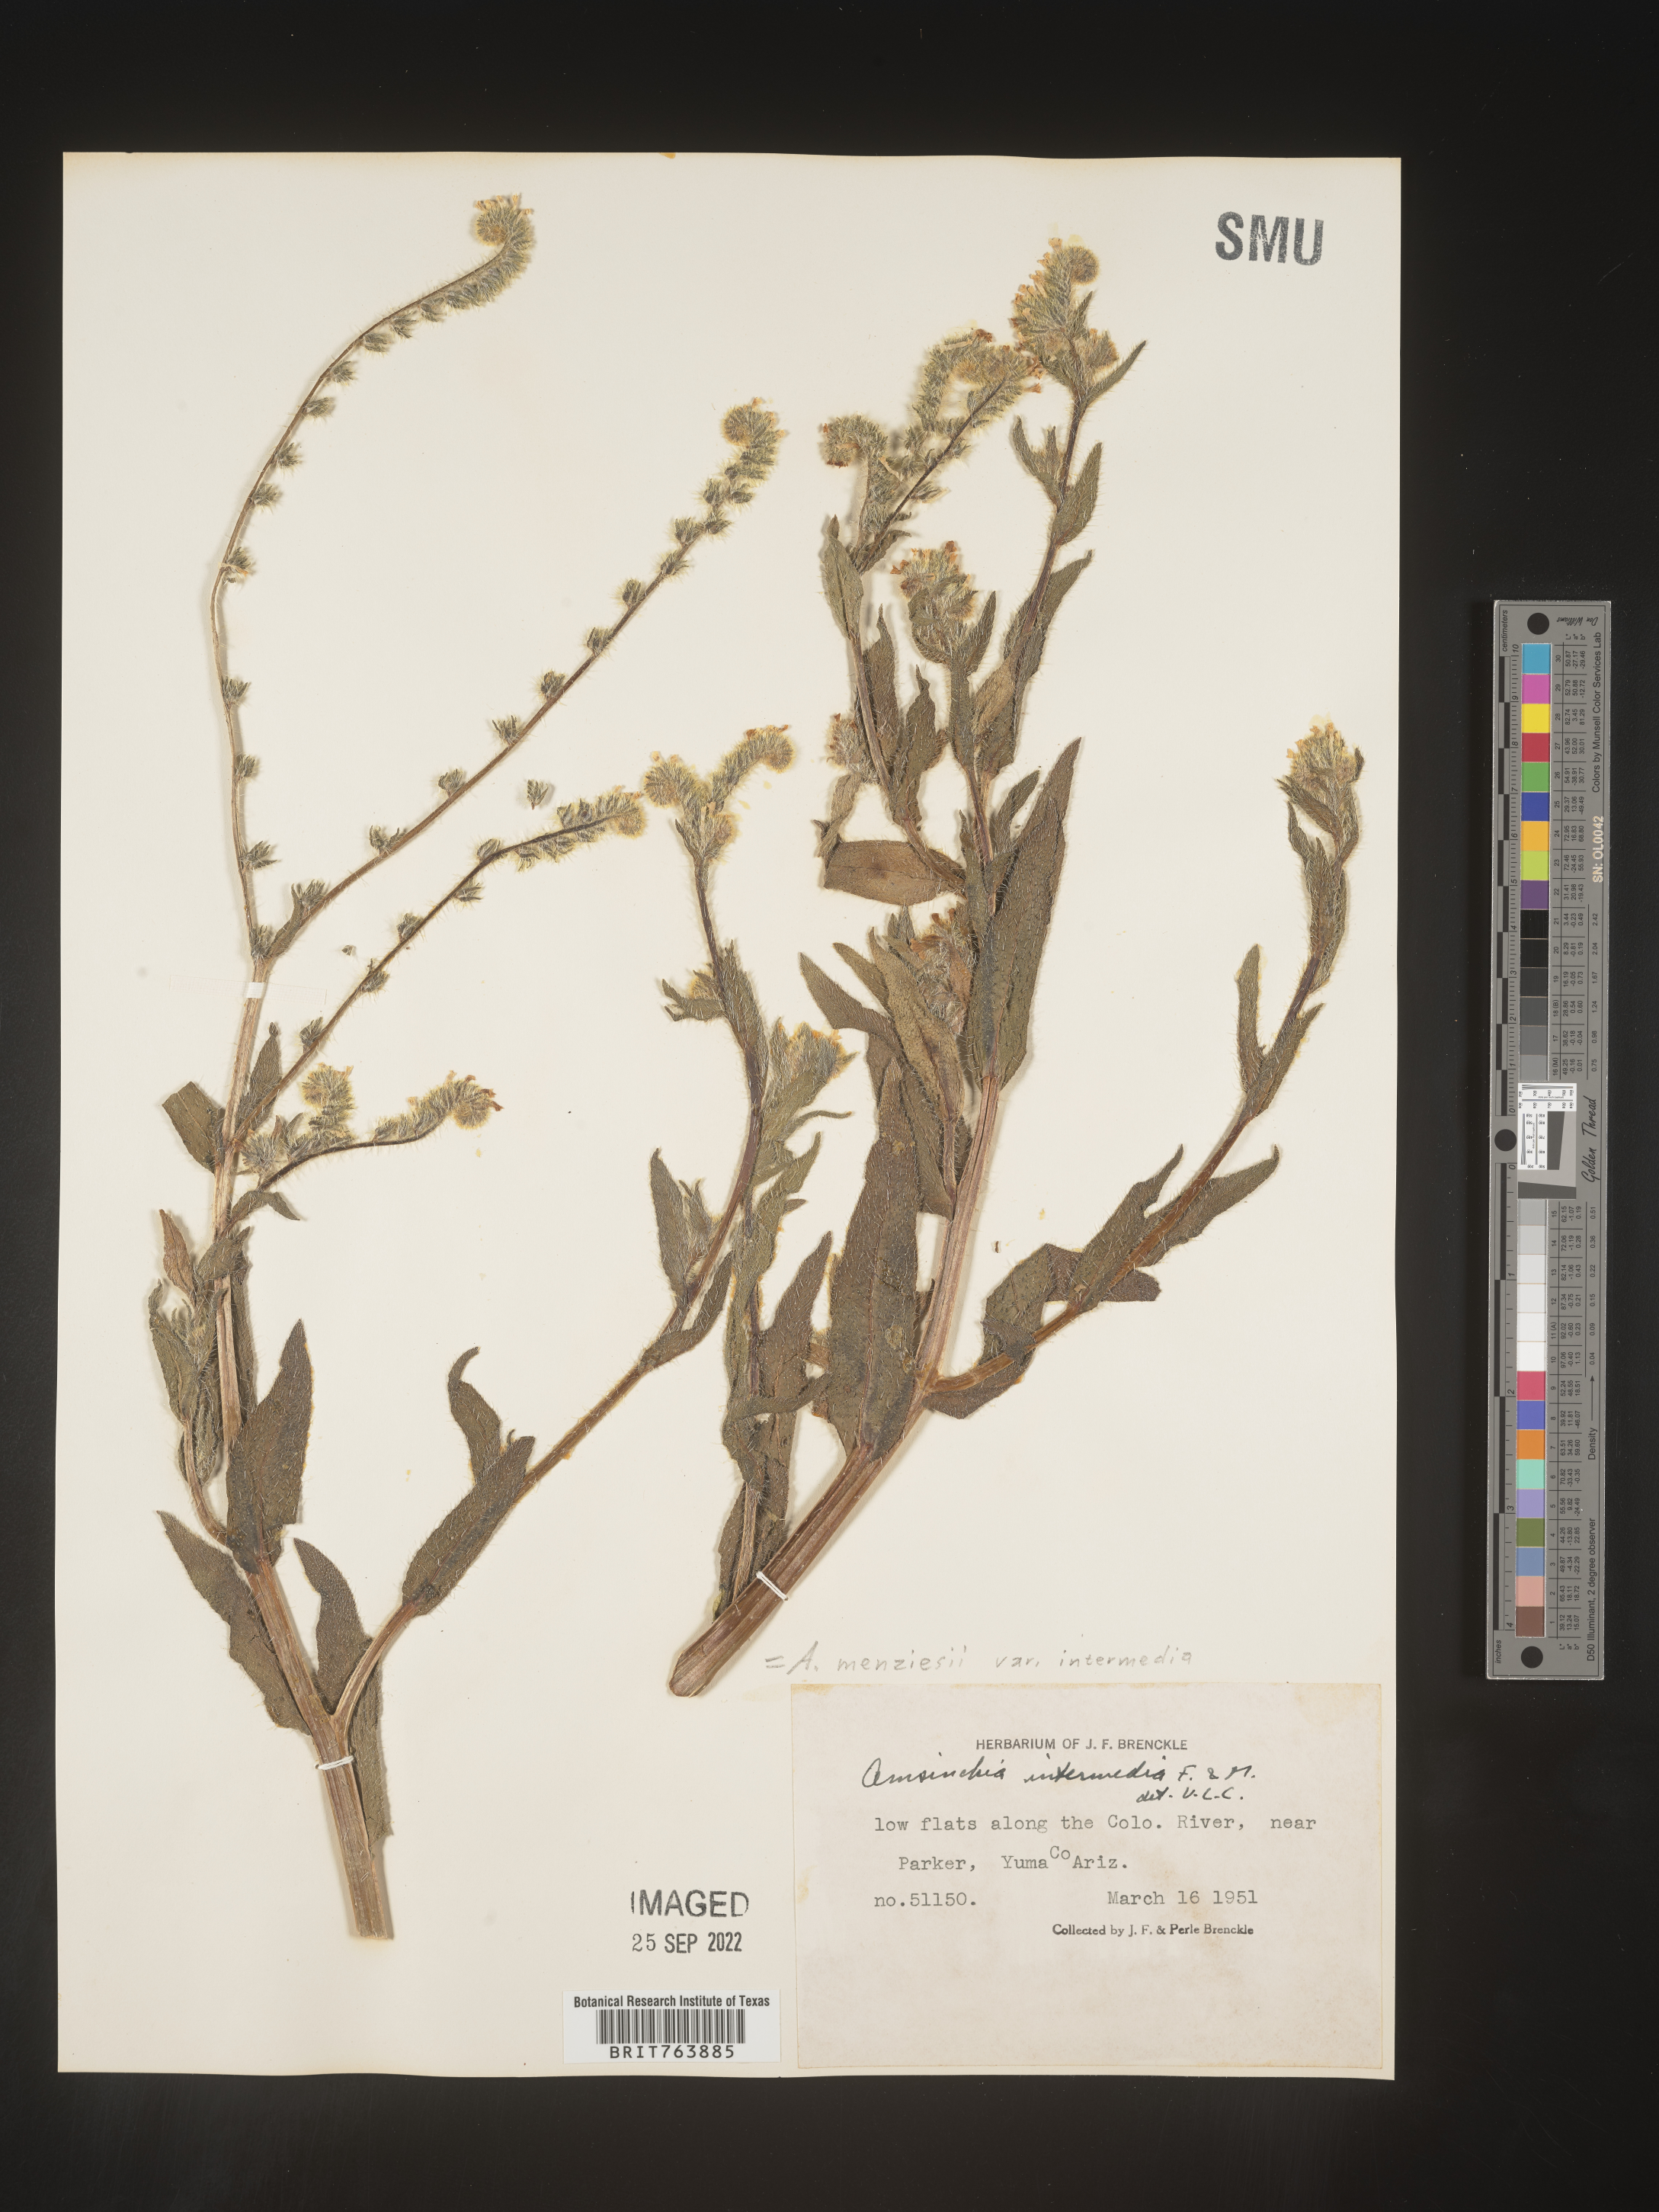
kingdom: Plantae
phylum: Tracheophyta
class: Magnoliopsida
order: Boraginales
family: Boraginaceae
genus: Amsinckia
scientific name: Amsinckia menziesii
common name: Menzies' fiddleneck
